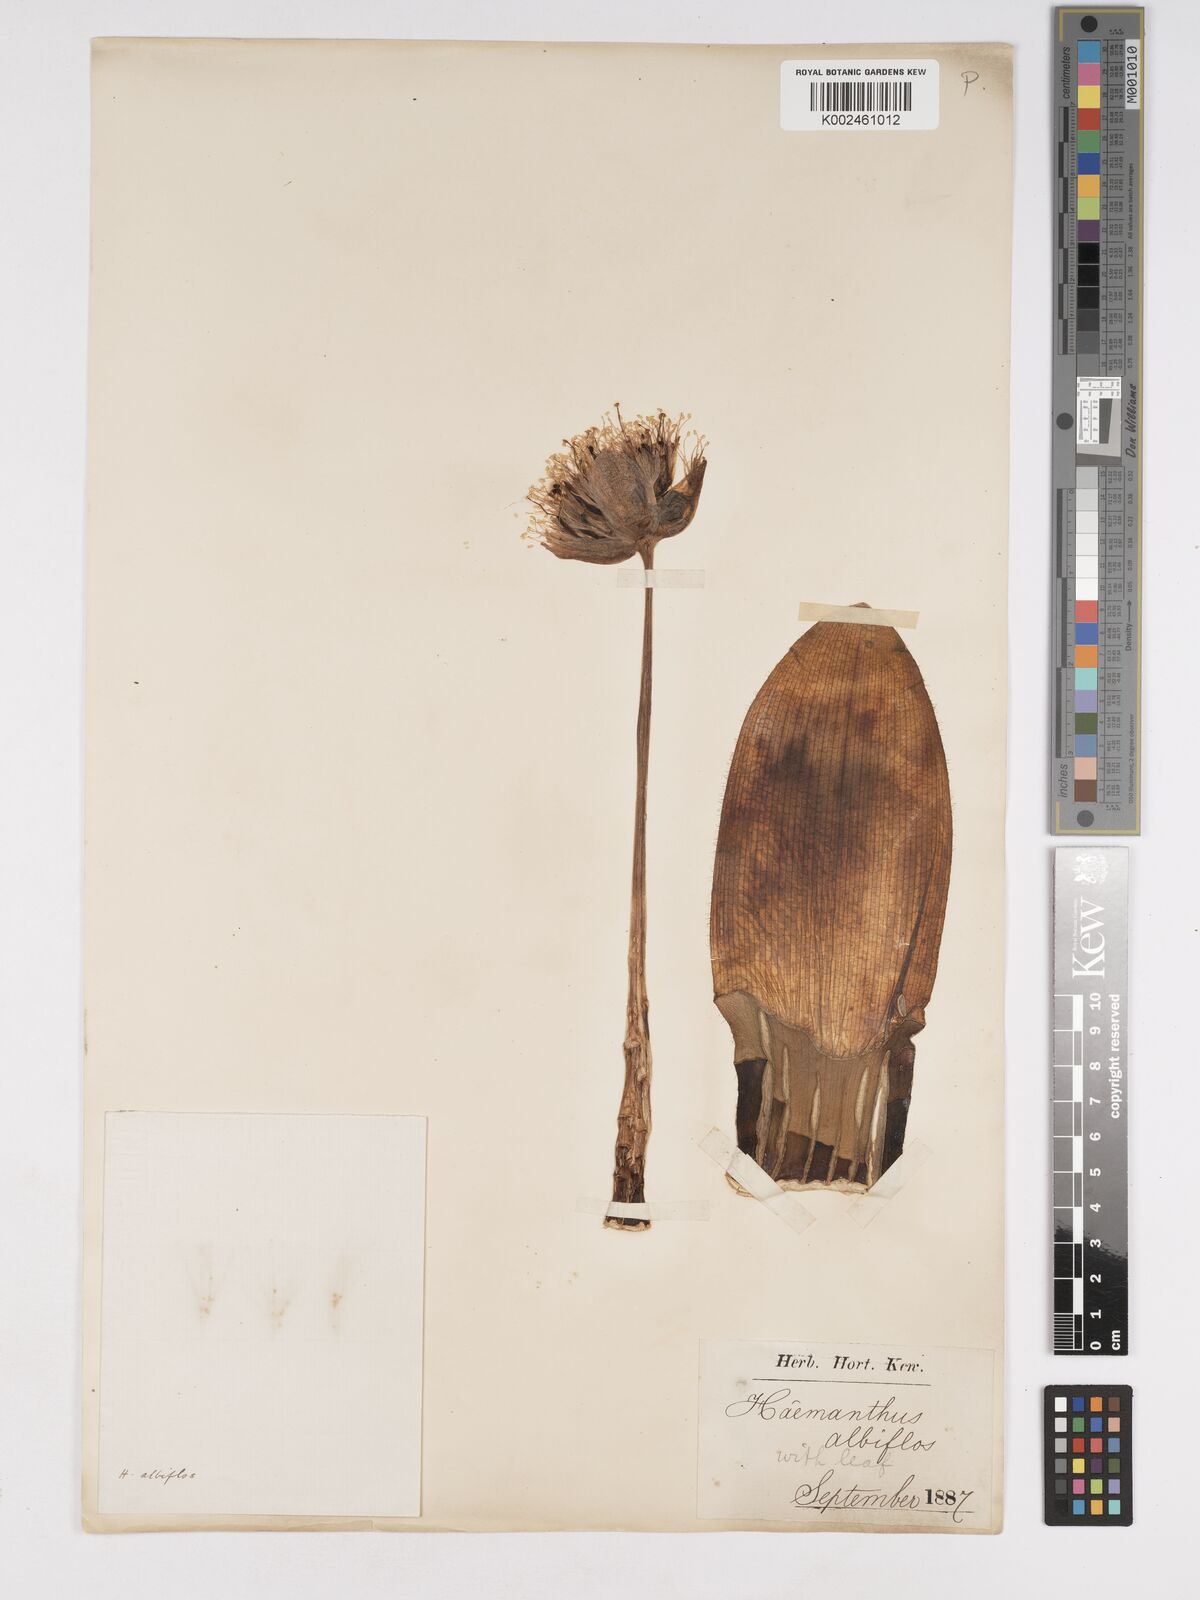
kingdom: Plantae
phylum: Tracheophyta
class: Liliopsida
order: Asparagales
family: Amaryllidaceae
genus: Haemanthus
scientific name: Haemanthus albiflos
